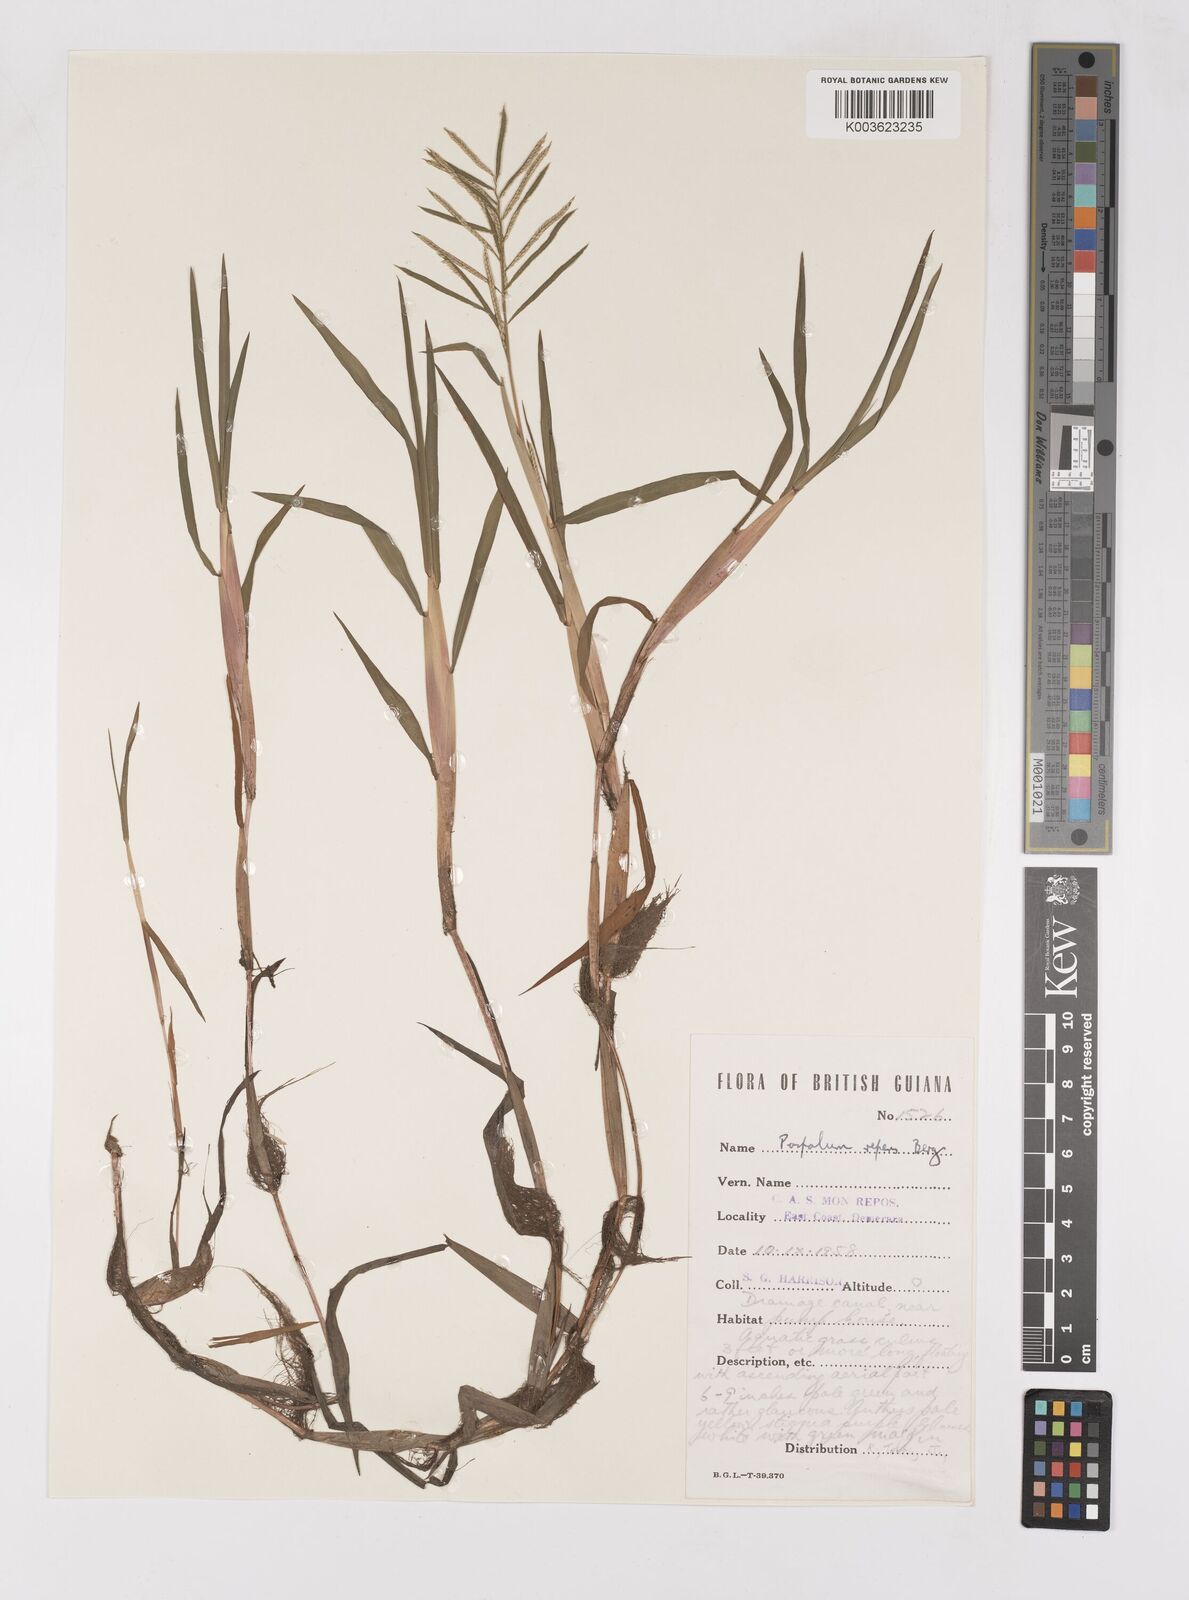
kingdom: Plantae
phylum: Tracheophyta
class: Liliopsida
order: Poales
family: Poaceae
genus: Paspalum
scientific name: Paspalum repens
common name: Water paspalum
